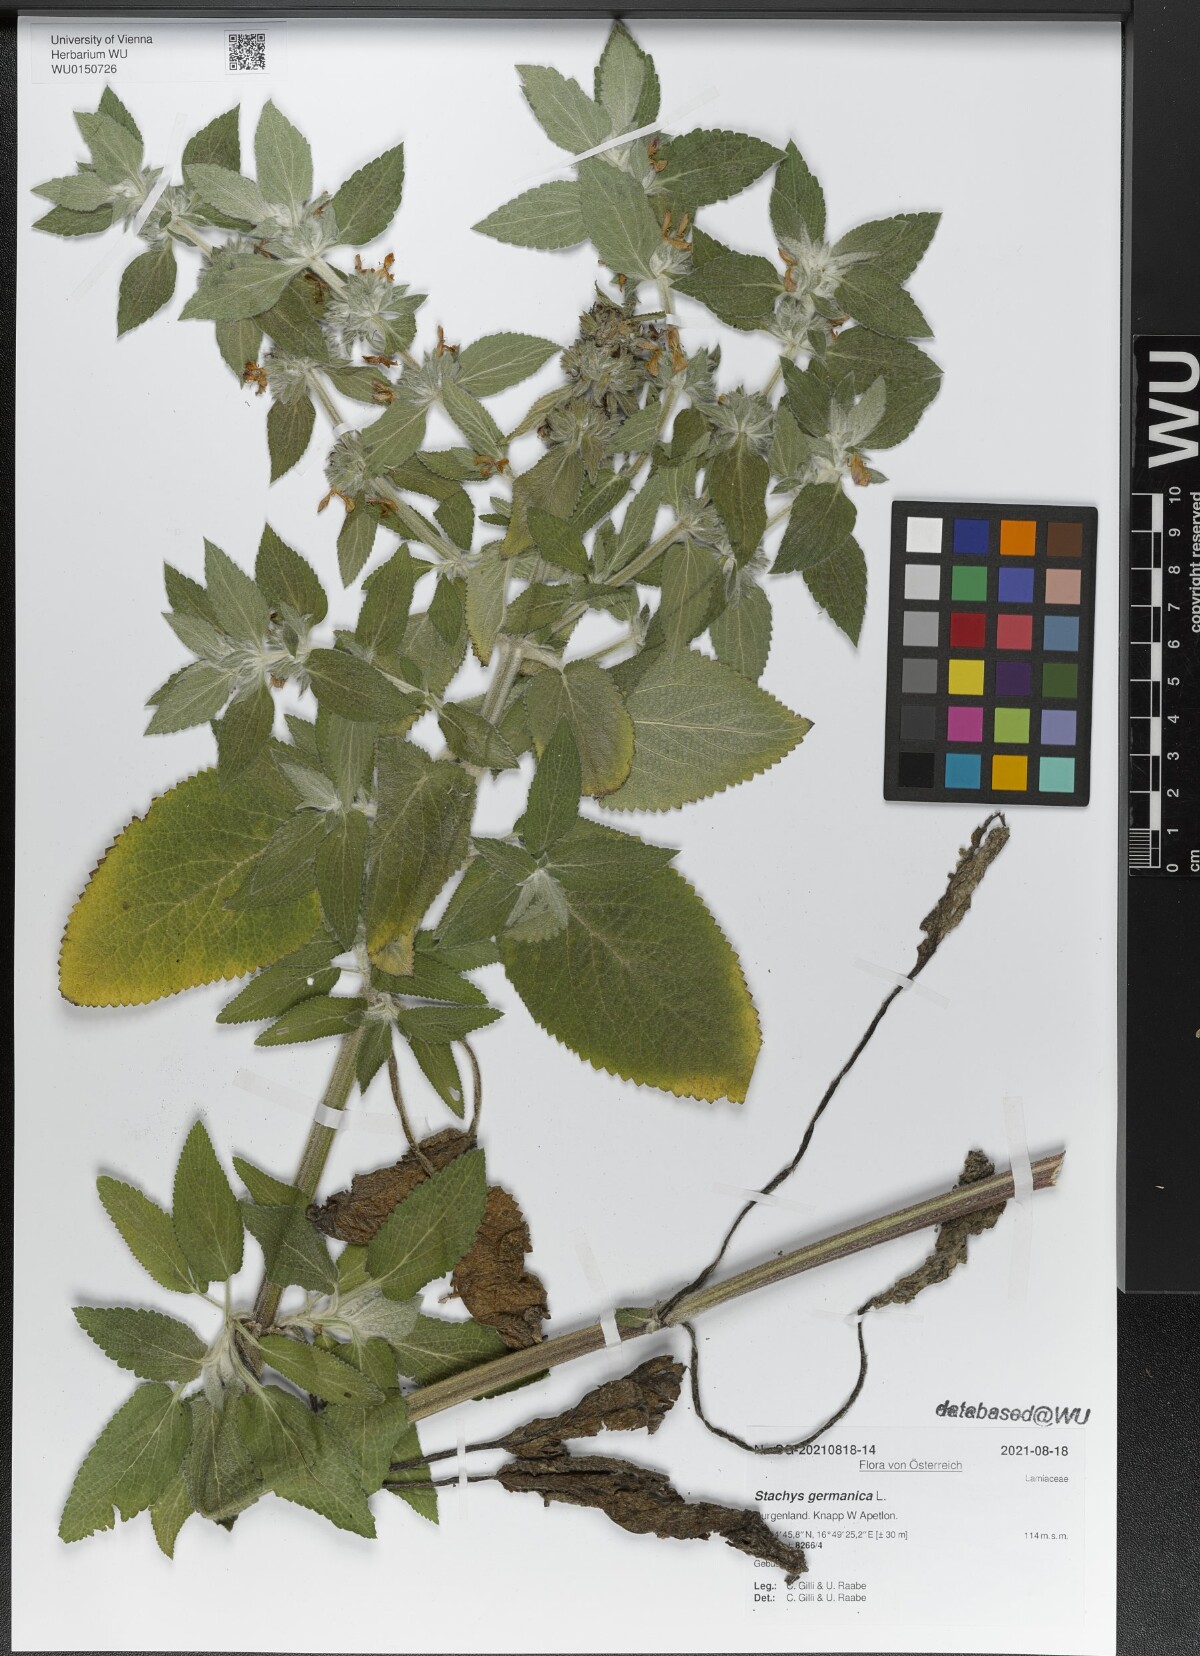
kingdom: Plantae
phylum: Tracheophyta
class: Magnoliopsida
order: Lamiales
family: Lamiaceae
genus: Stachys
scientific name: Stachys germanica
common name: Downy woundwort
